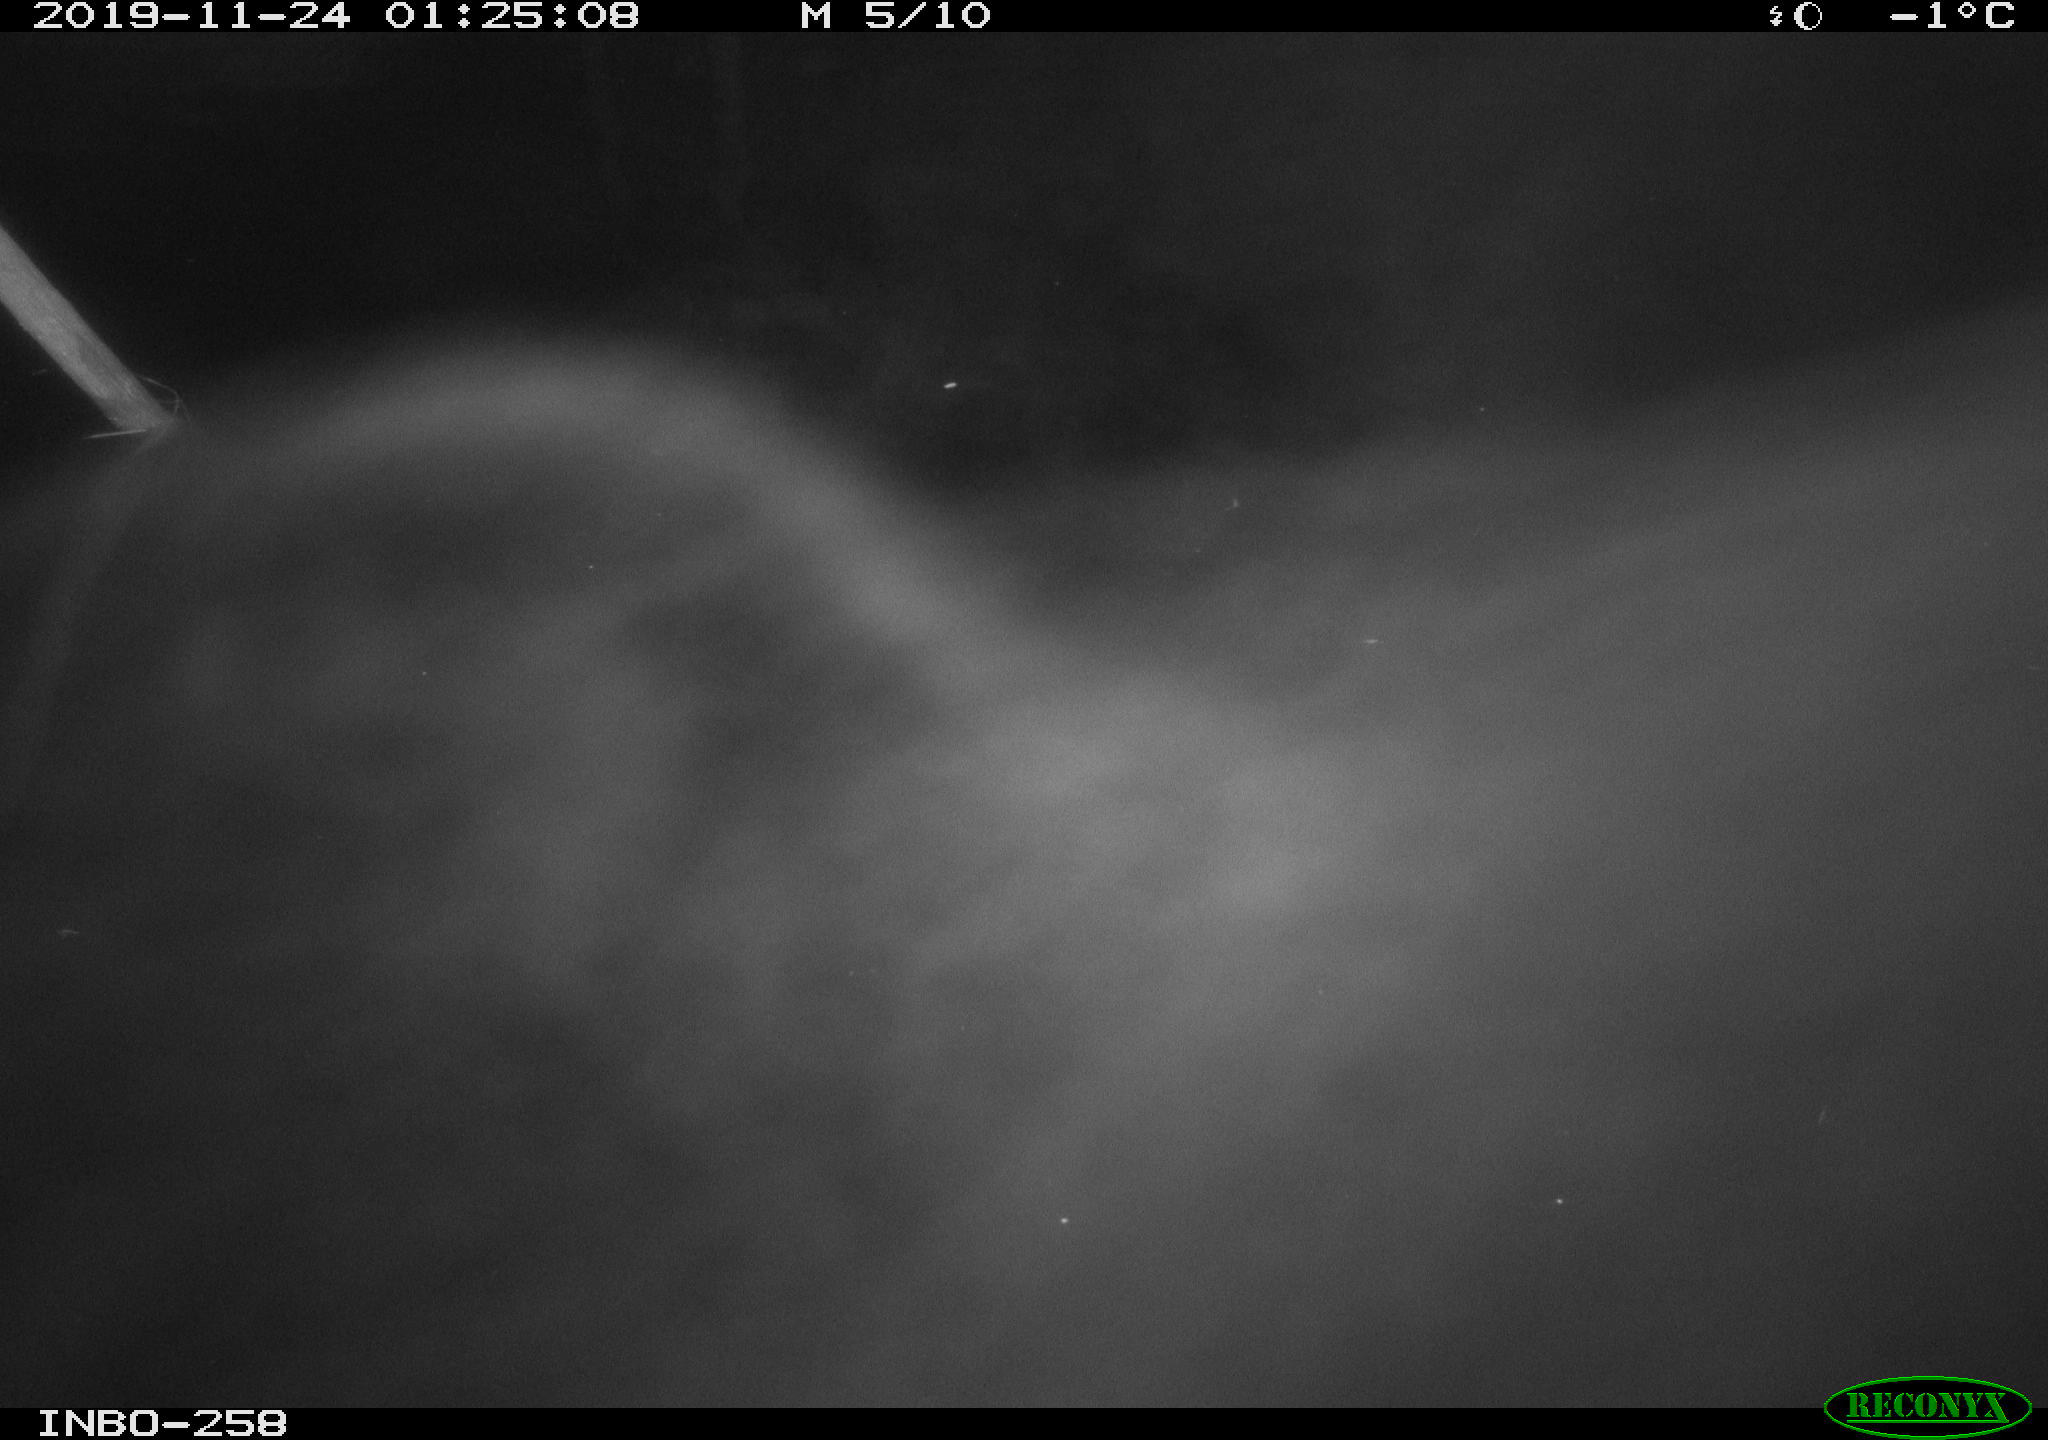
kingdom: Animalia
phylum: Chordata
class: Aves
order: Anseriformes
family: Anatidae
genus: Anas
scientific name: Anas platyrhynchos
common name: Mallard
